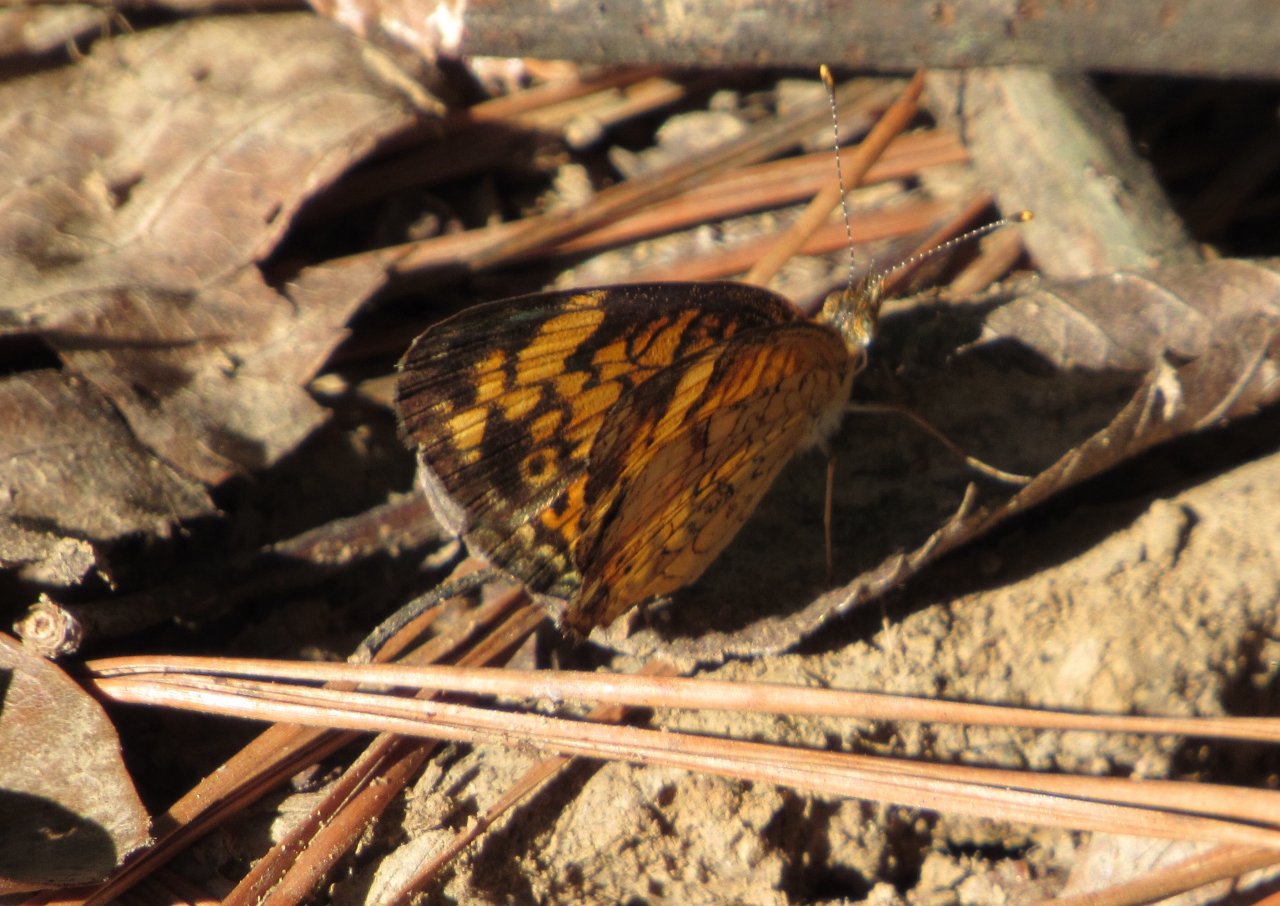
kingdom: Animalia
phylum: Arthropoda
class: Insecta
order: Lepidoptera
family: Nymphalidae
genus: Phyciodes
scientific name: Phyciodes tharos
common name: Pearl Crescent
